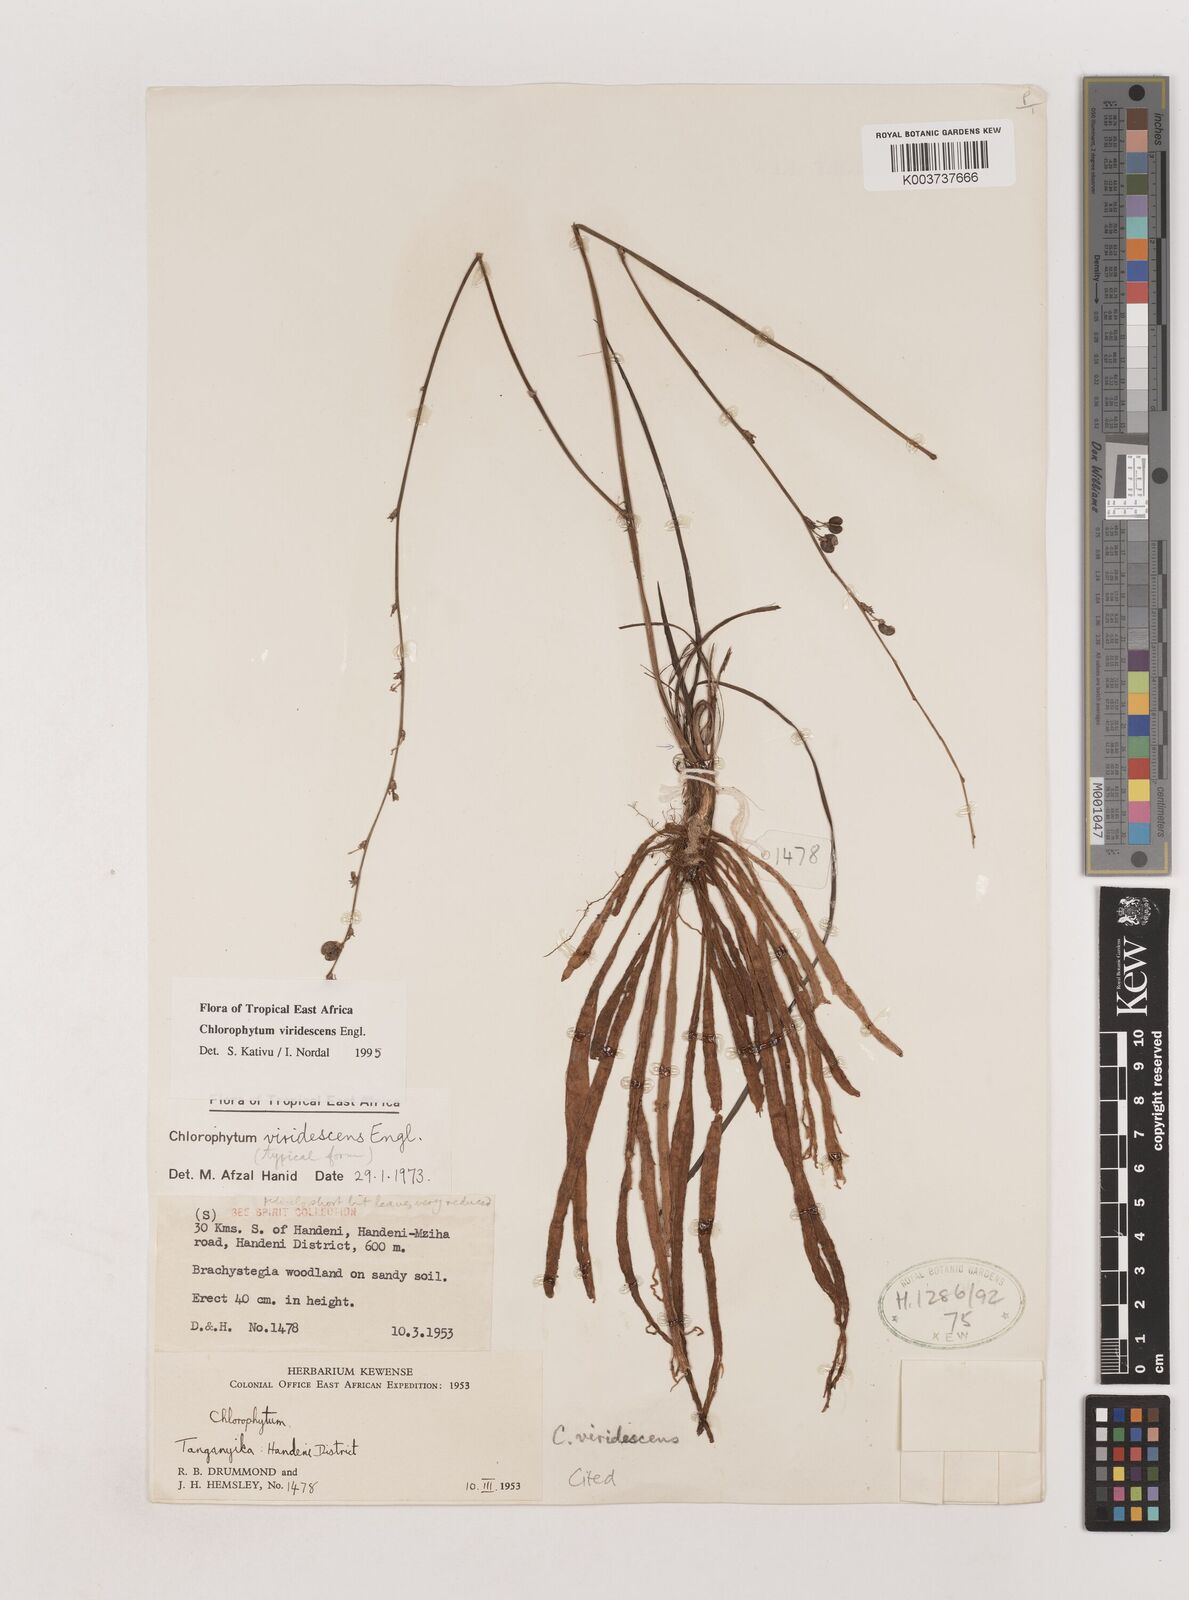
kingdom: Plantae
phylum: Tracheophyta
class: Liliopsida
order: Asparagales
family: Asparagaceae
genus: Chlorophytum
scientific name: Chlorophytum viridescens
